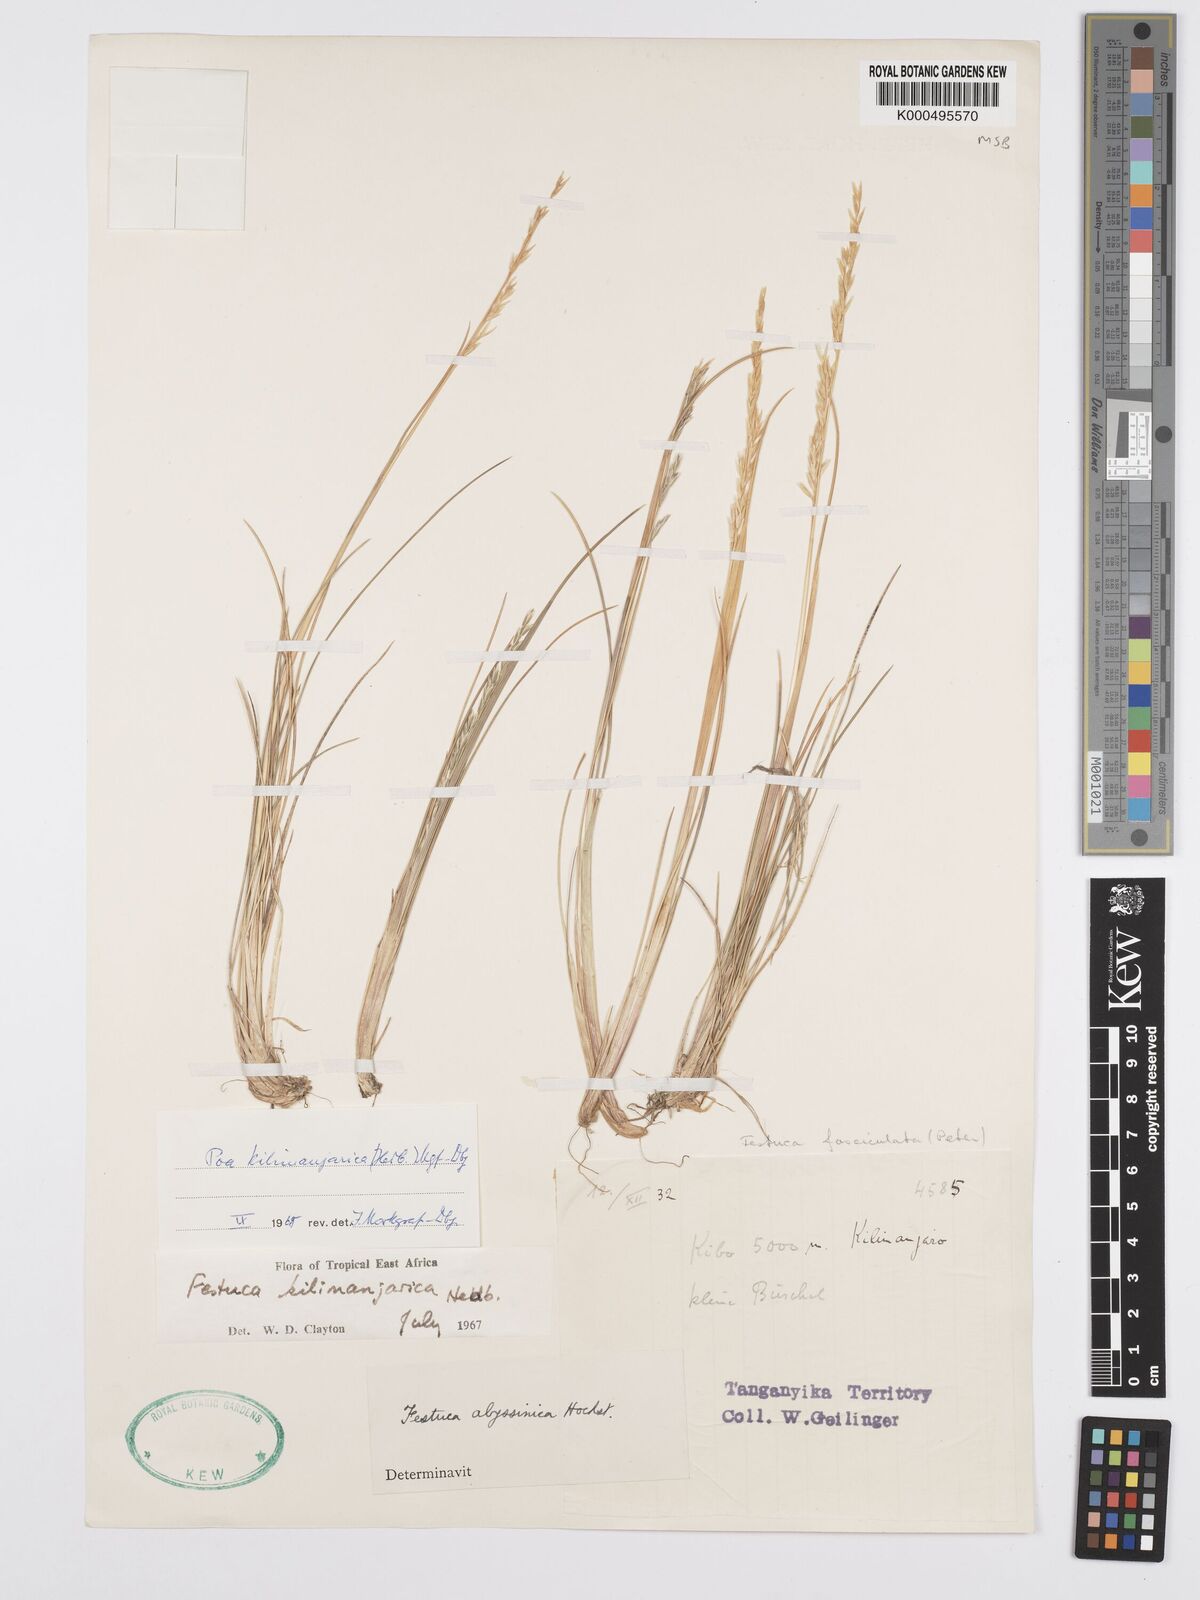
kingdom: Plantae
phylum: Tracheophyta
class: Liliopsida
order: Poales
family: Poaceae
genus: Poa
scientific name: Poa kilimanjarica
